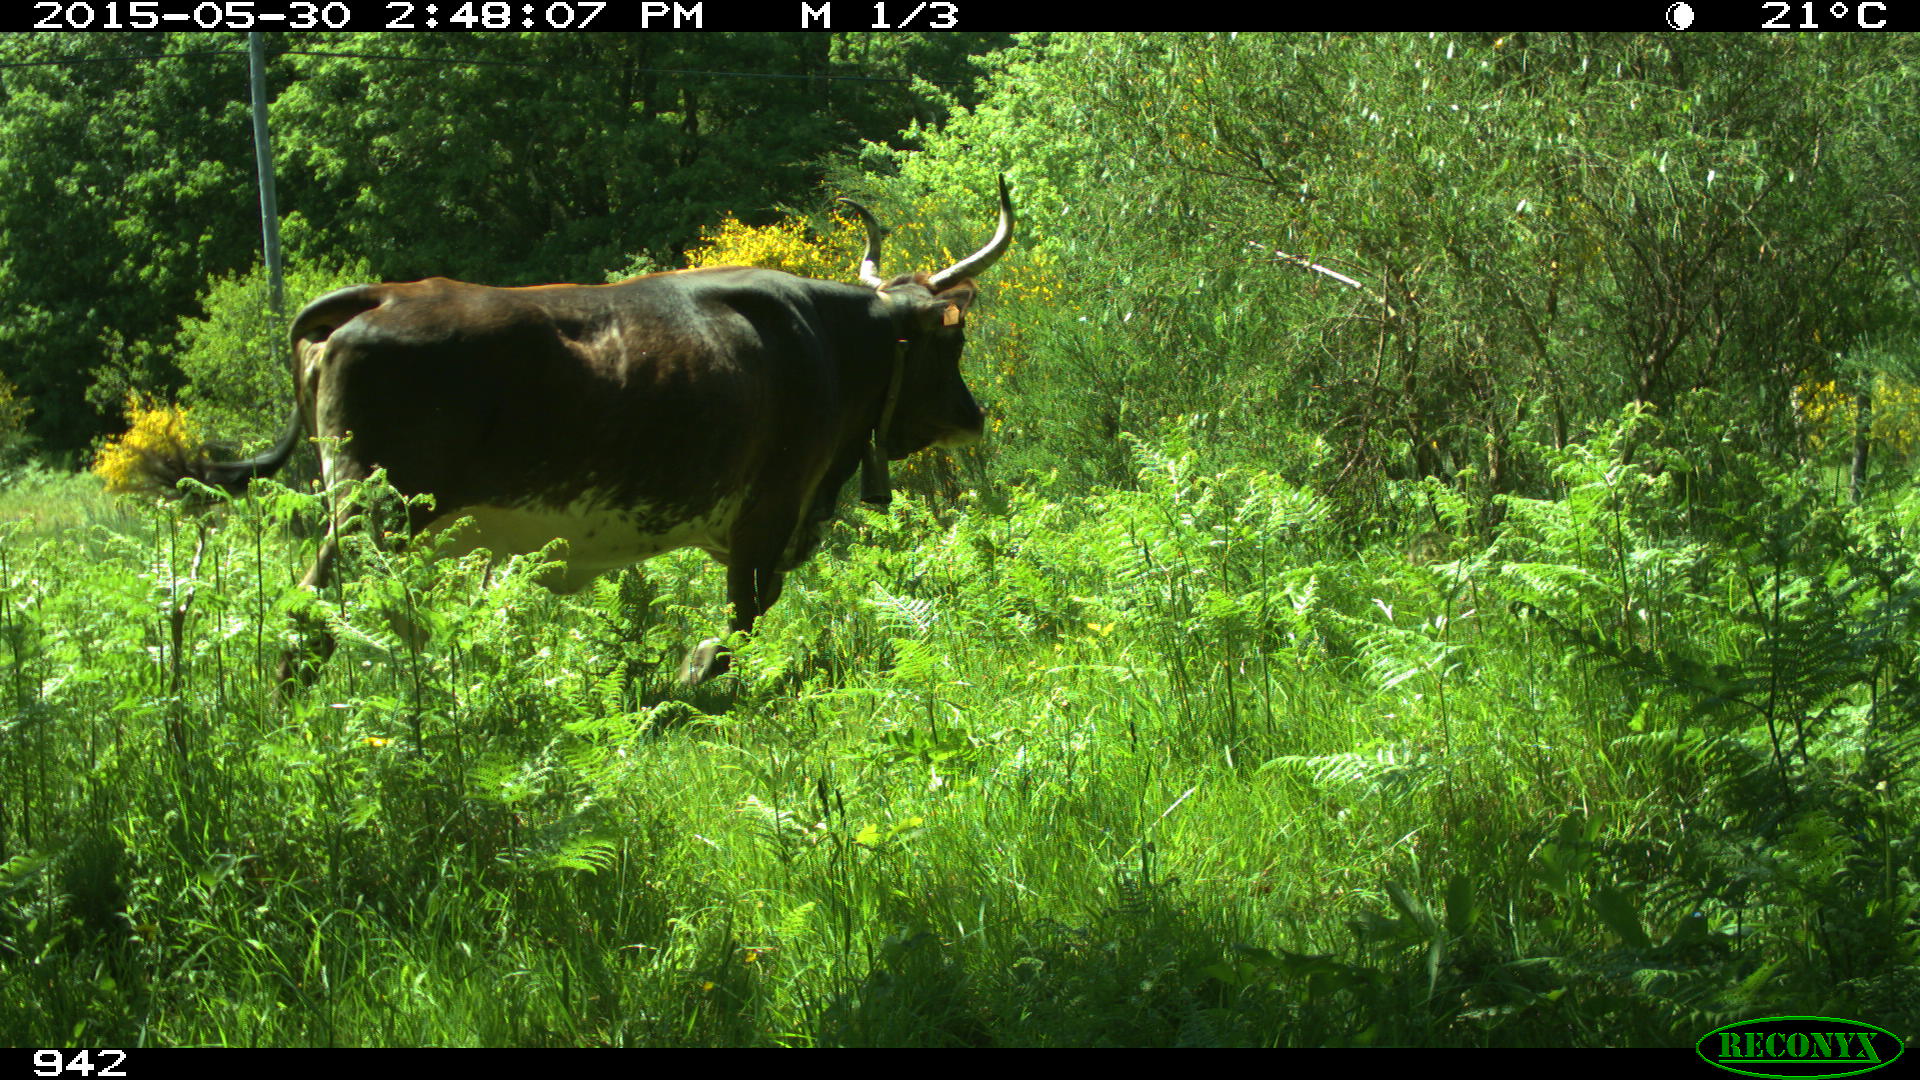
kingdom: Animalia
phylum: Chordata
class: Mammalia
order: Artiodactyla
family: Bovidae
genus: Bos
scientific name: Bos taurus
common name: Domesticated cattle
